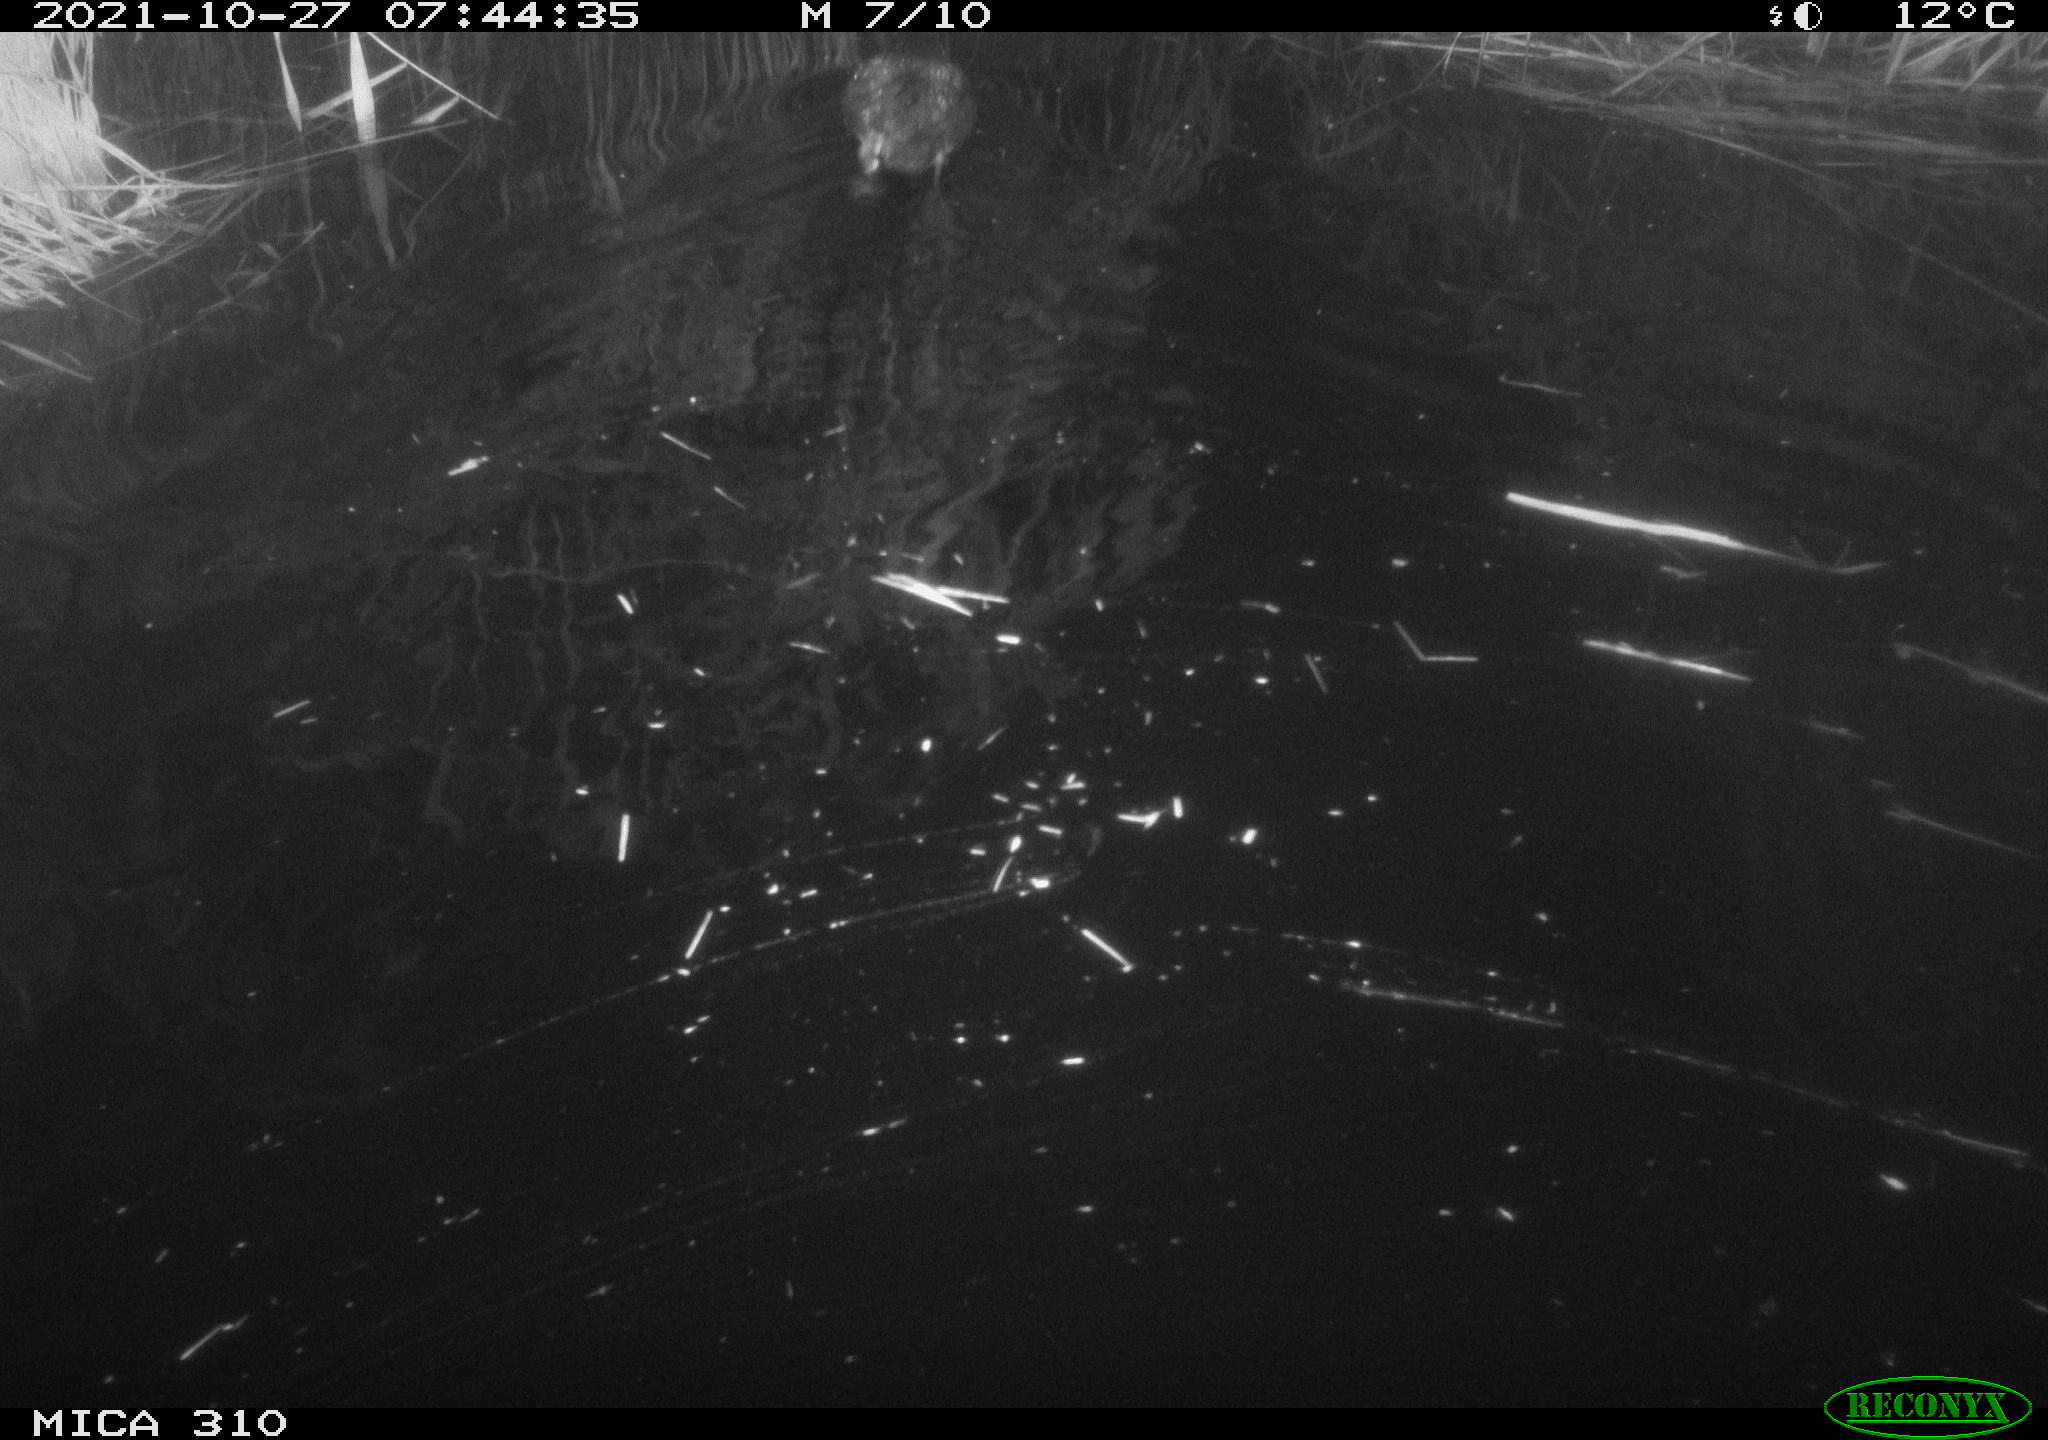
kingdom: Animalia
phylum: Chordata
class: Aves
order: Gruiformes
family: Rallidae
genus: Fulica
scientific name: Fulica atra
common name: Eurasian coot
